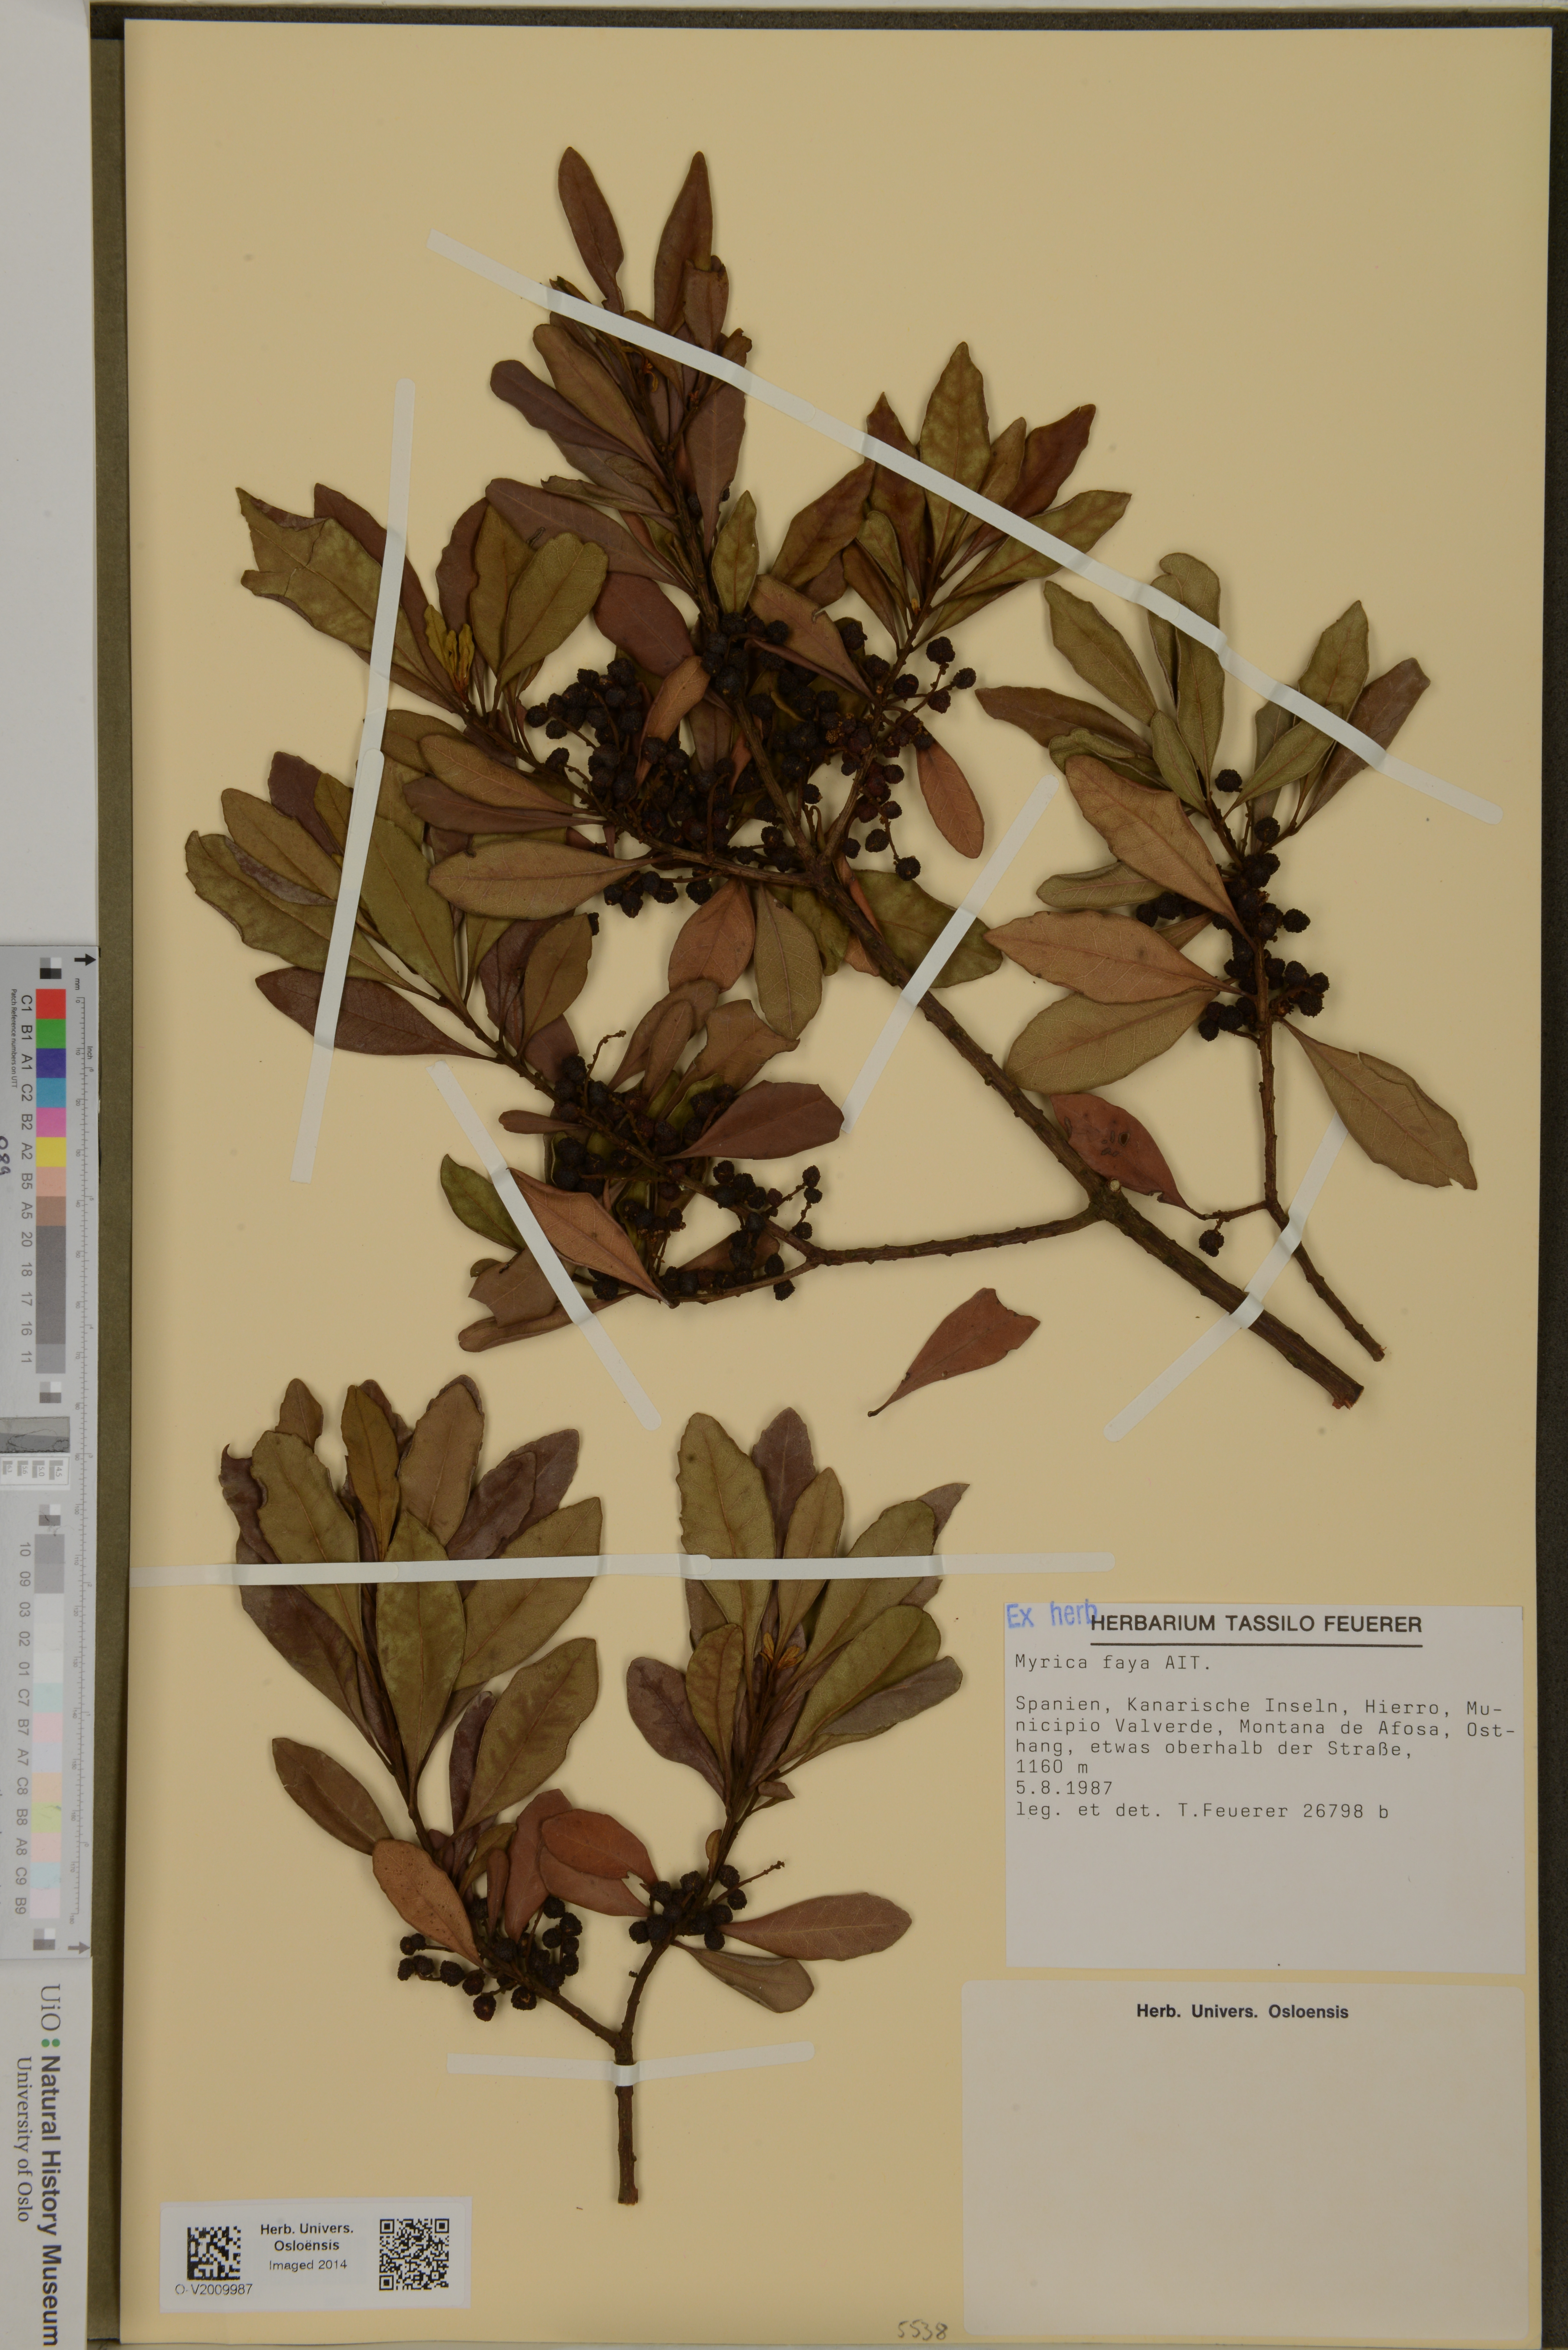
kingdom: Plantae
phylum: Tracheophyta
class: Magnoliopsida
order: Fagales
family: Myricaceae
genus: Morella
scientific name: Morella faya
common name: Firetree
